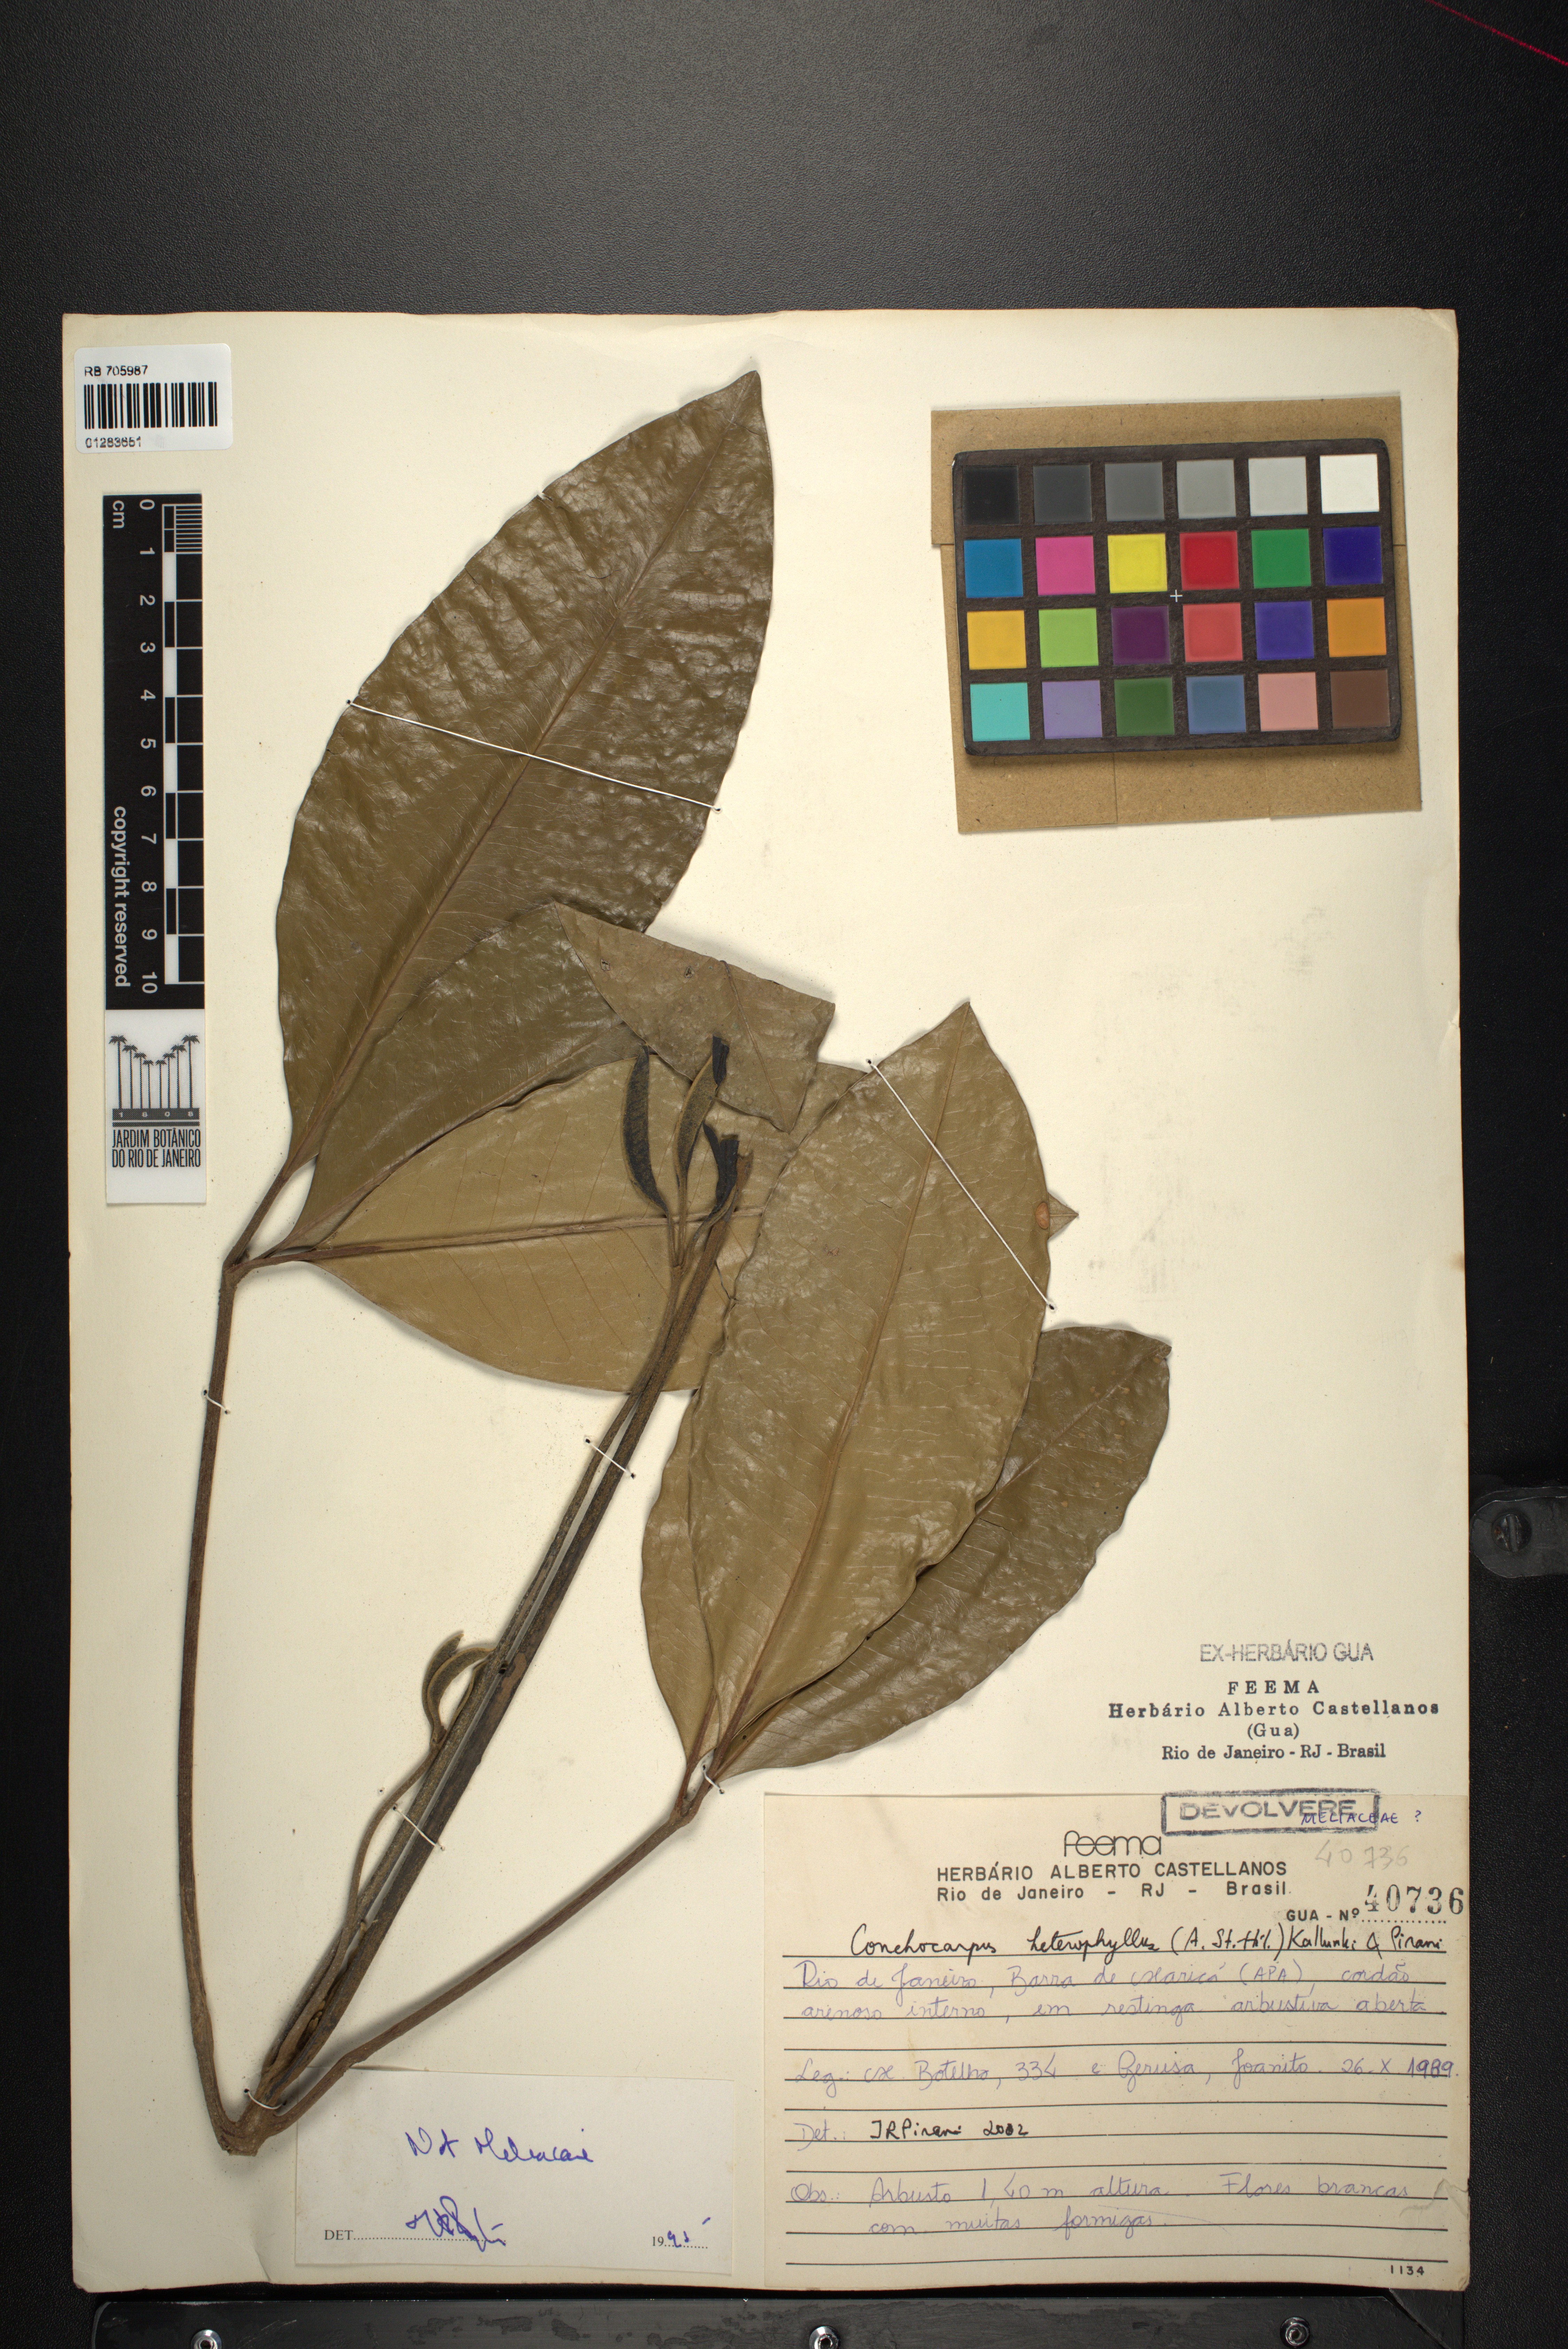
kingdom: Plantae
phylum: Tracheophyta
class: Magnoliopsida
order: Sapindales
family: Rutaceae
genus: Conchocarpus
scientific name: Conchocarpus heterophyllus
